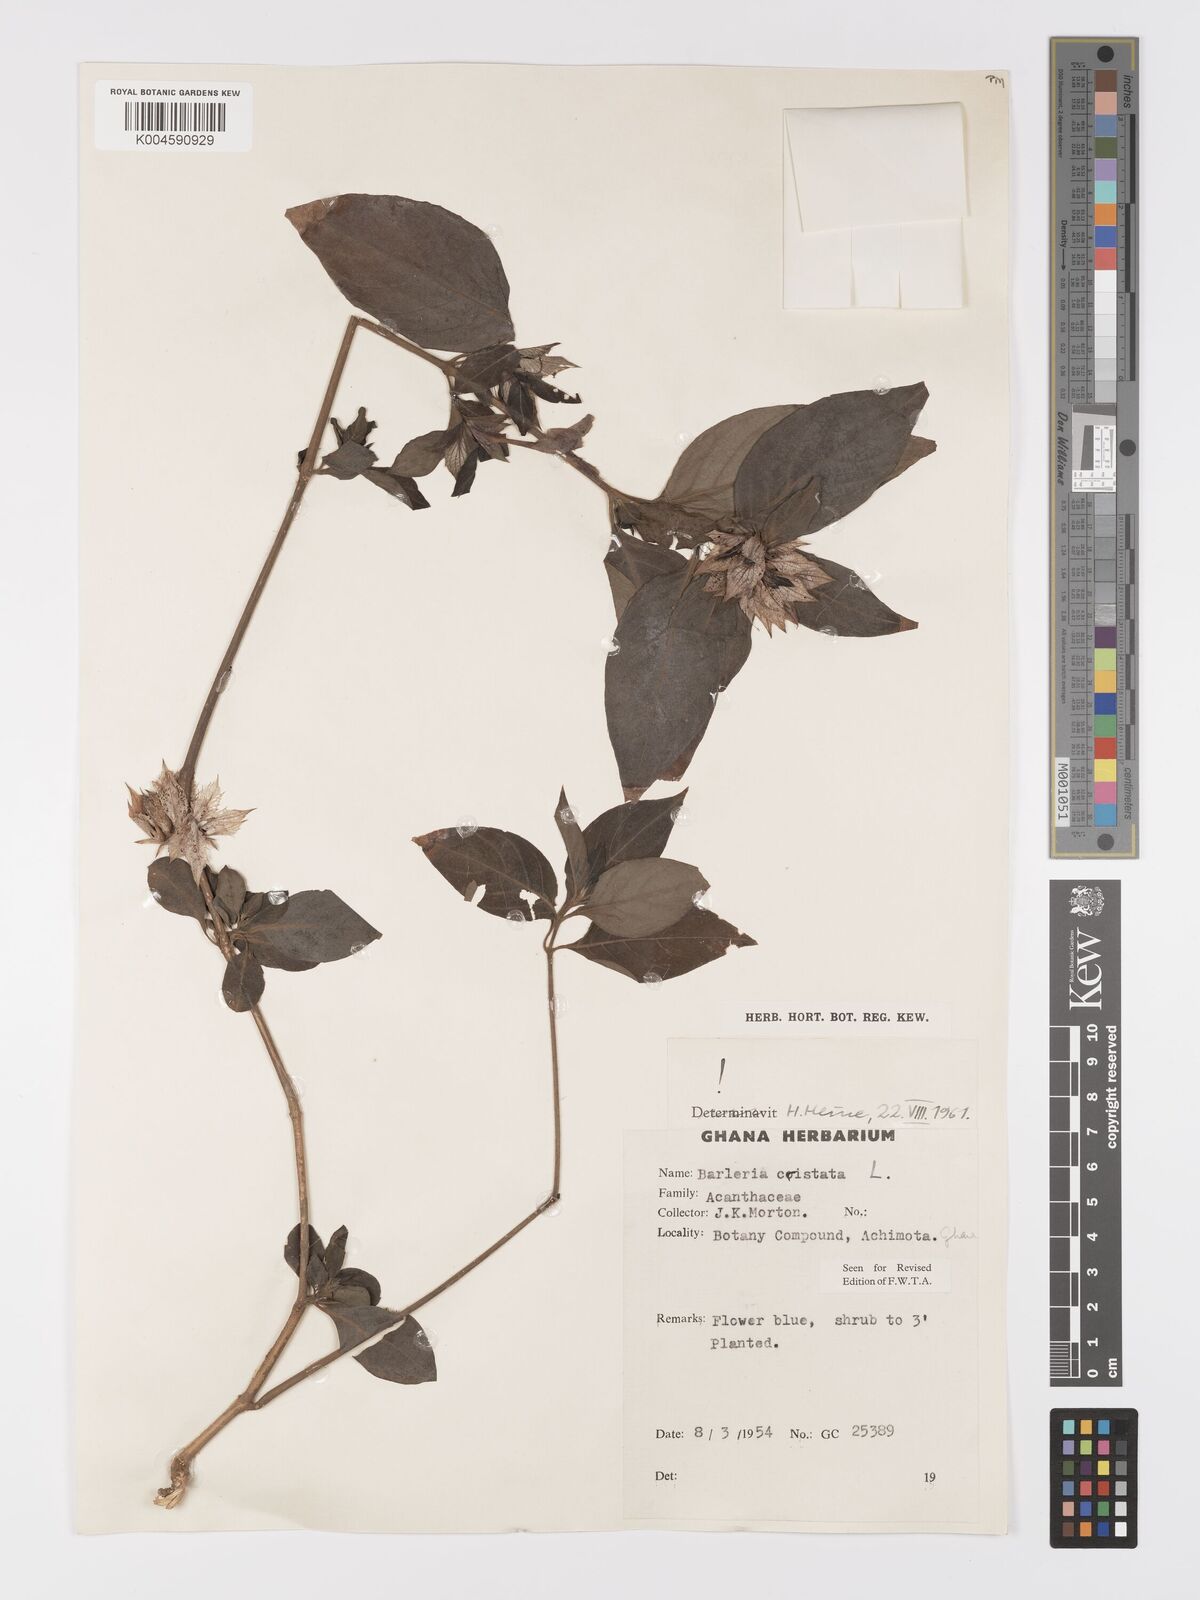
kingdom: Plantae
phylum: Tracheophyta
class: Magnoliopsida
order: Lamiales
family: Acanthaceae
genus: Barleria
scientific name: Barleria cristata
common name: Crested philippine violet
